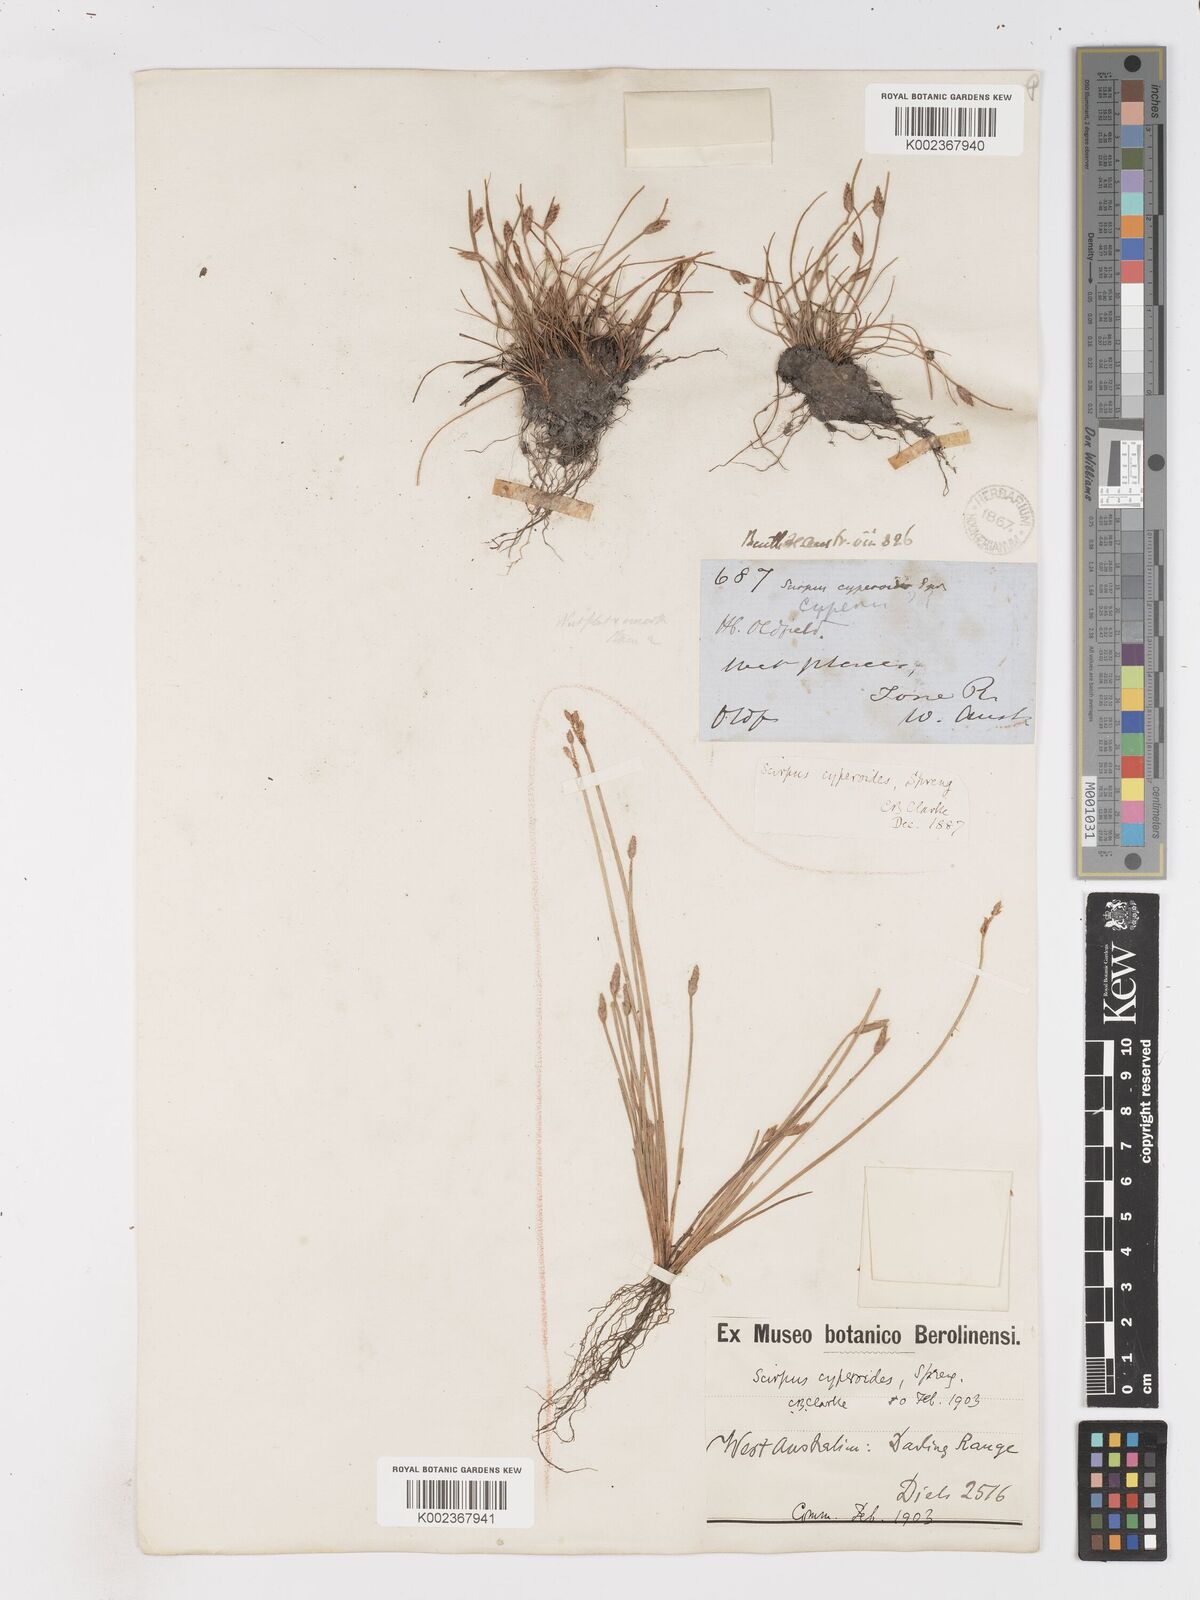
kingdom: Plantae
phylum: Tracheophyta
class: Liliopsida
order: Poales
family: Cyperaceae
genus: Isolepis
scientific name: Isolepis cyperoides
